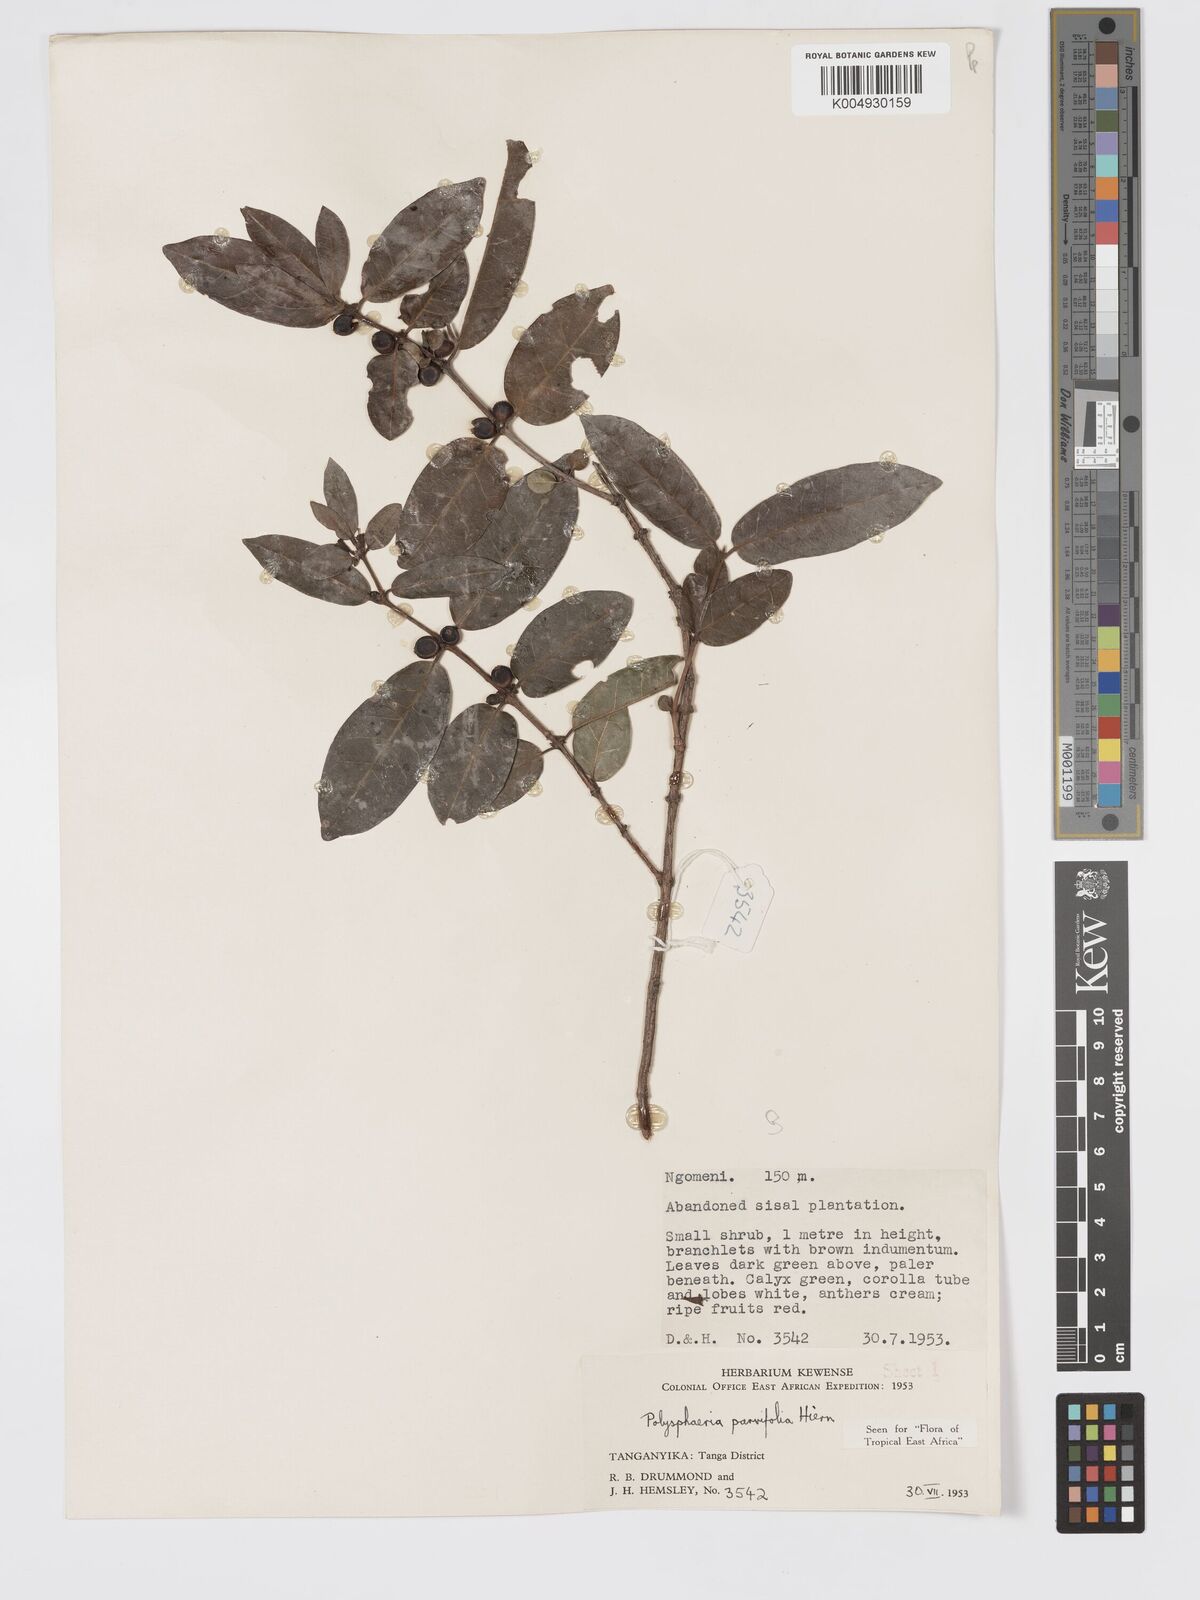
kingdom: Plantae
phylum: Tracheophyta
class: Magnoliopsida
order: Gentianales
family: Rubiaceae
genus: Polysphaeria
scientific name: Polysphaeria parvifolia
